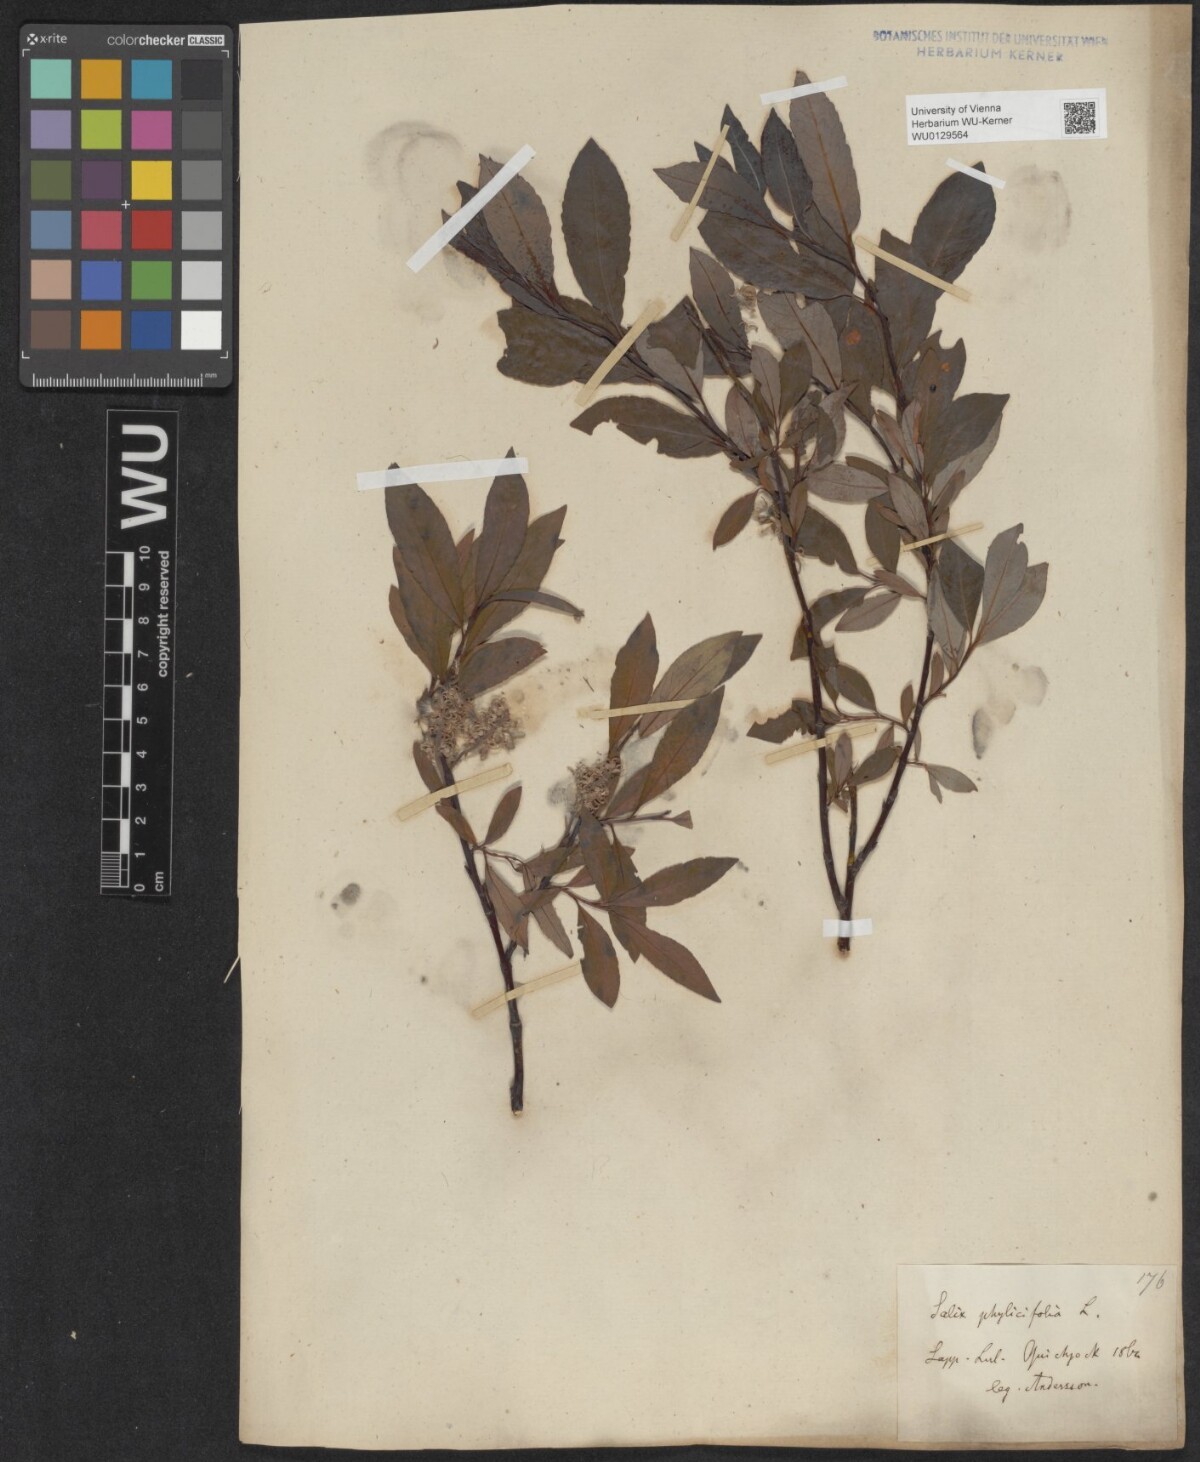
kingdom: Plantae
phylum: Tracheophyta
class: Magnoliopsida
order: Malpighiales
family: Salicaceae
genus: Salix
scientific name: Salix bicolor
